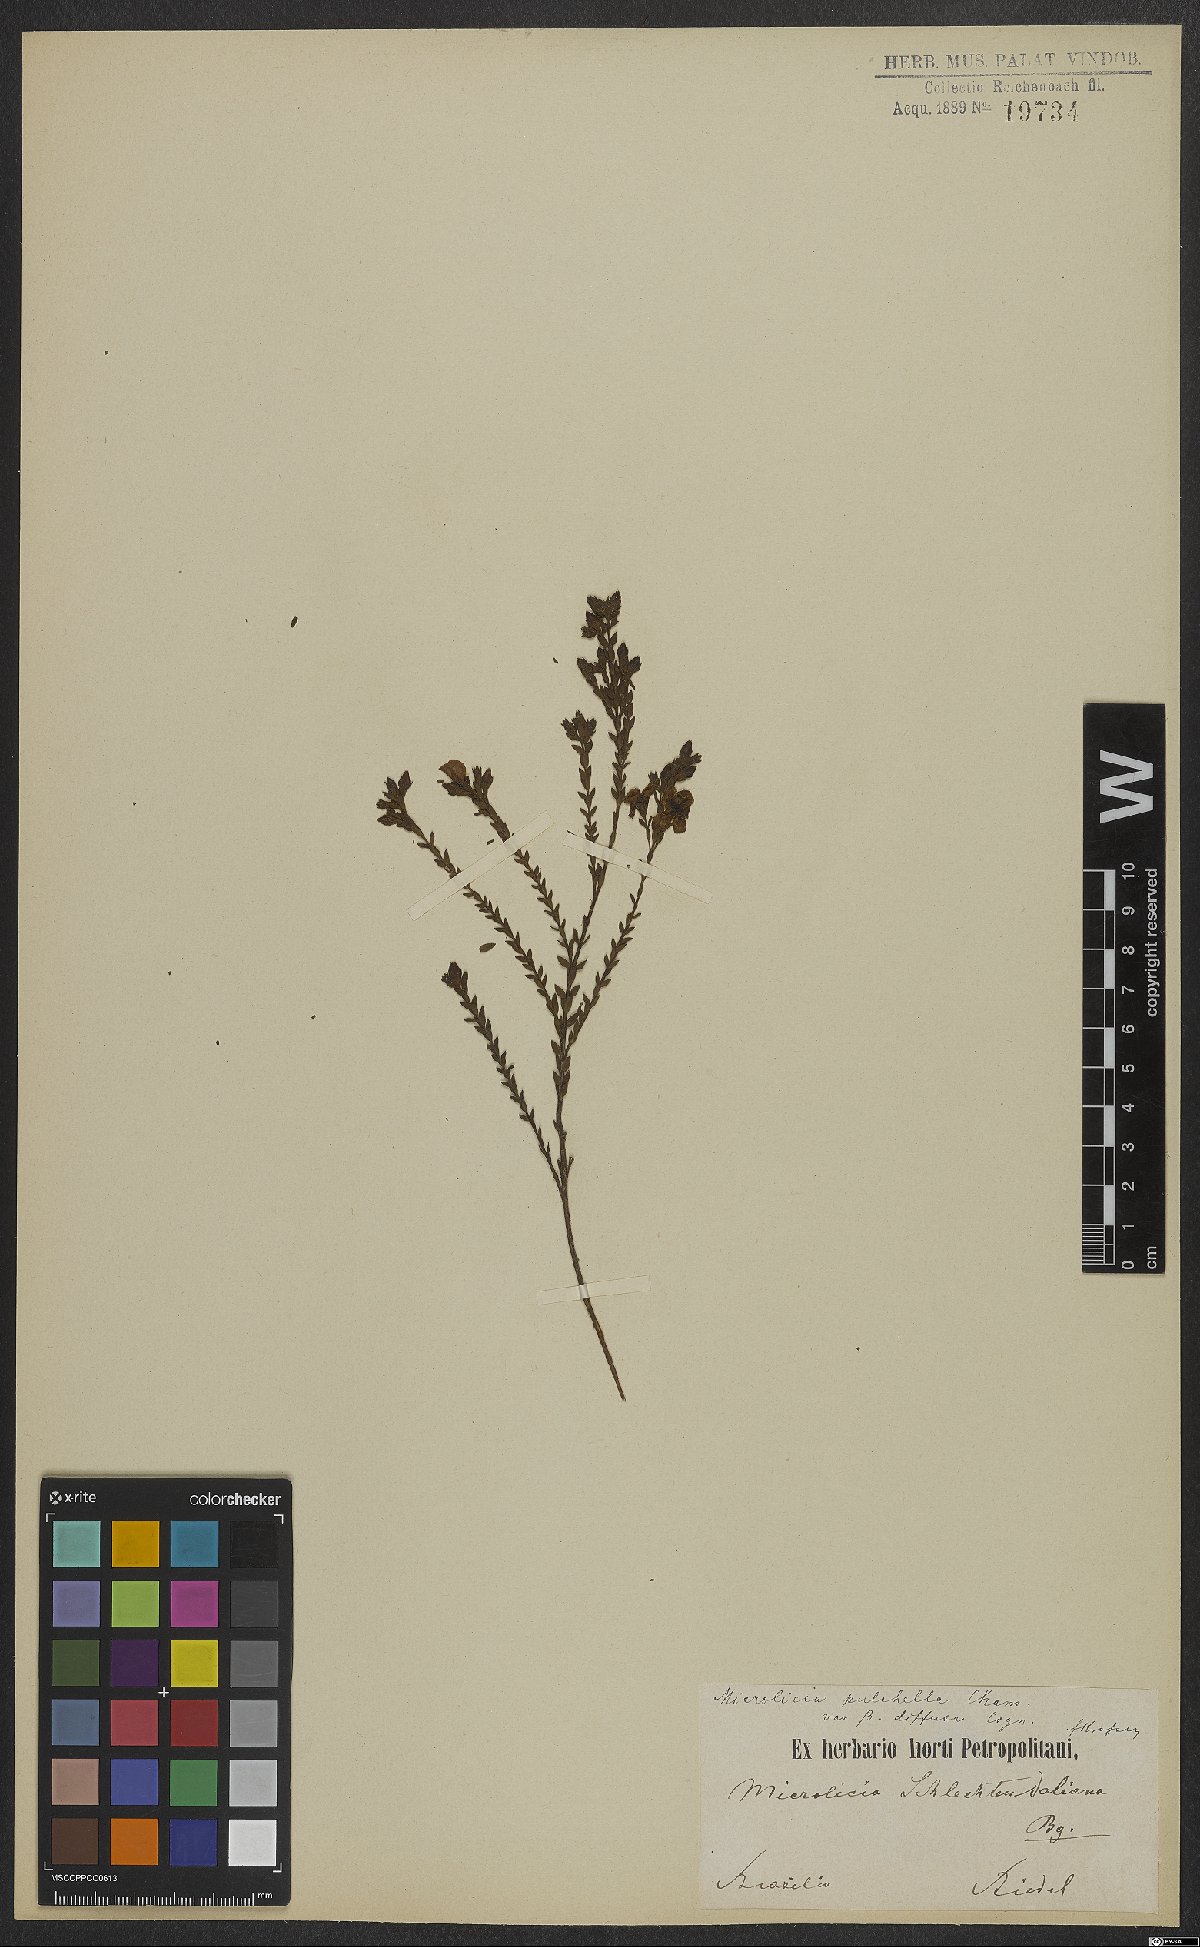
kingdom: Plantae
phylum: Tracheophyta
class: Magnoliopsida
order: Myrtales
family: Melastomataceae
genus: Microlicia
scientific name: Microlicia isophylla
